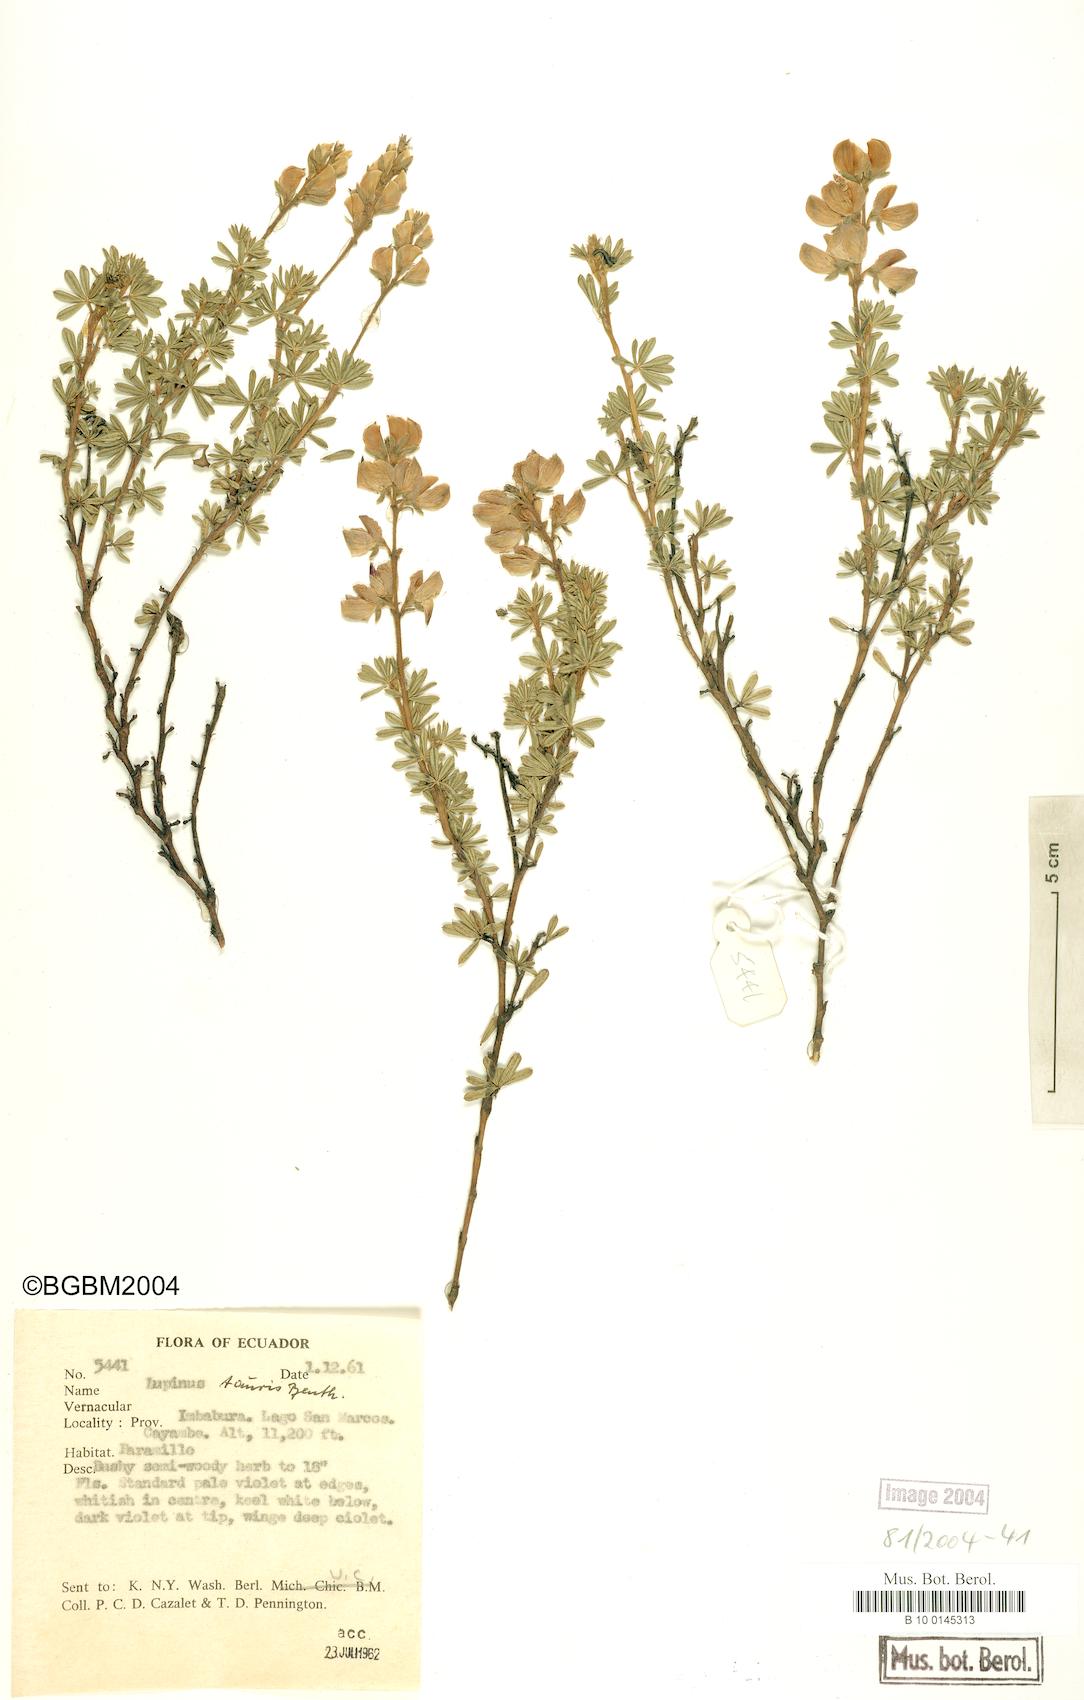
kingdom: Plantae
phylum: Tracheophyta
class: Magnoliopsida
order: Fabales
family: Fabaceae
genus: Lupinus
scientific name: Lupinus tauris
